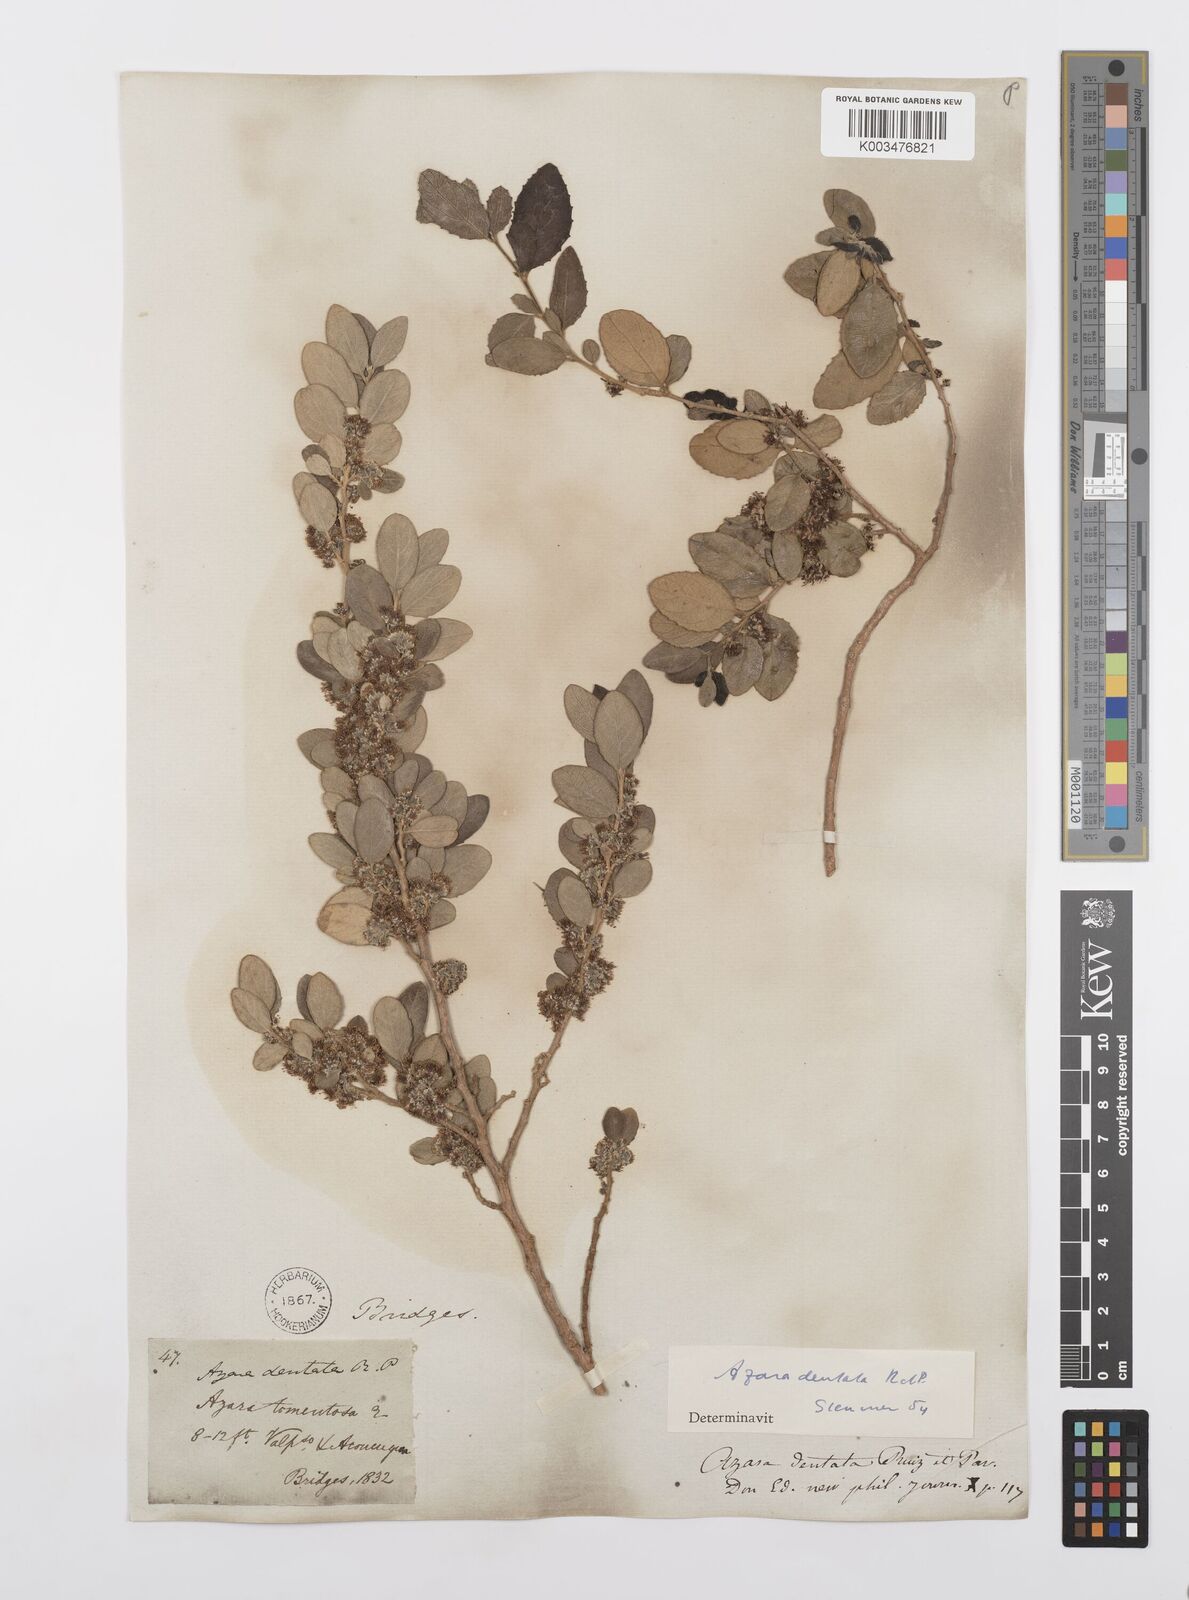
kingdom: Plantae
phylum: Tracheophyta
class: Magnoliopsida
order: Malpighiales
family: Salicaceae
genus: Azara
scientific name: Azara dentata
